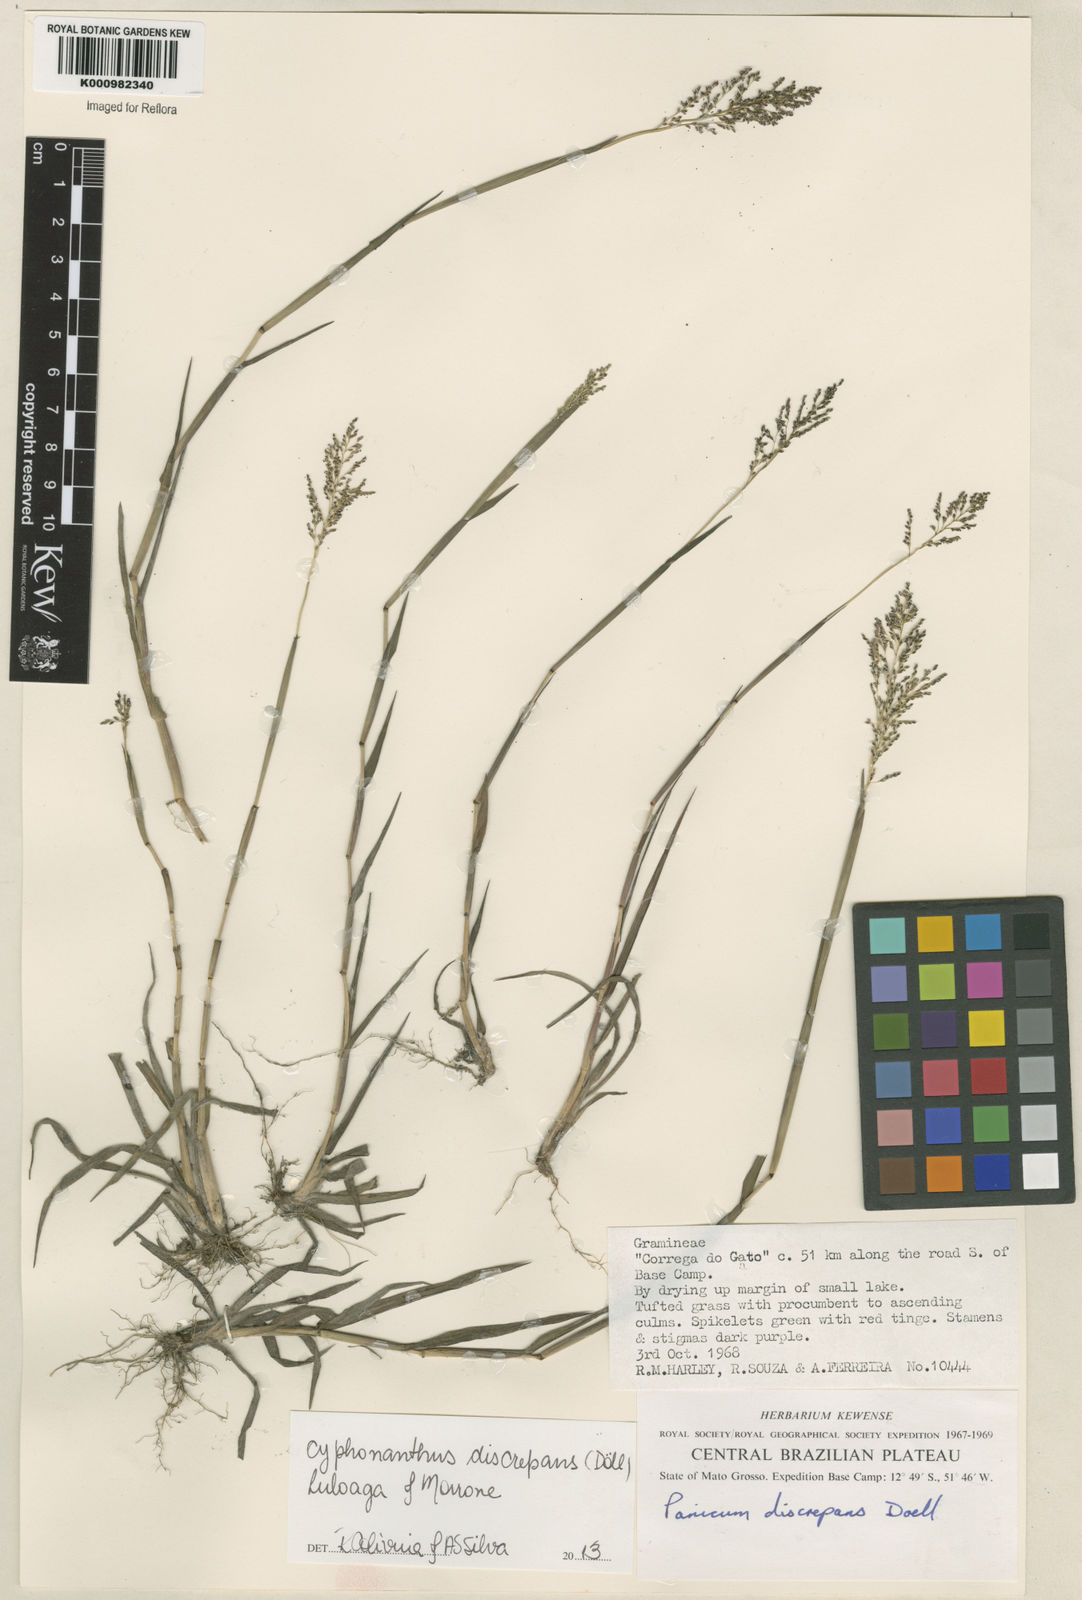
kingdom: Plantae
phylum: Tracheophyta
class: Liliopsida
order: Poales
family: Poaceae
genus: Panicum
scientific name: Panicum
